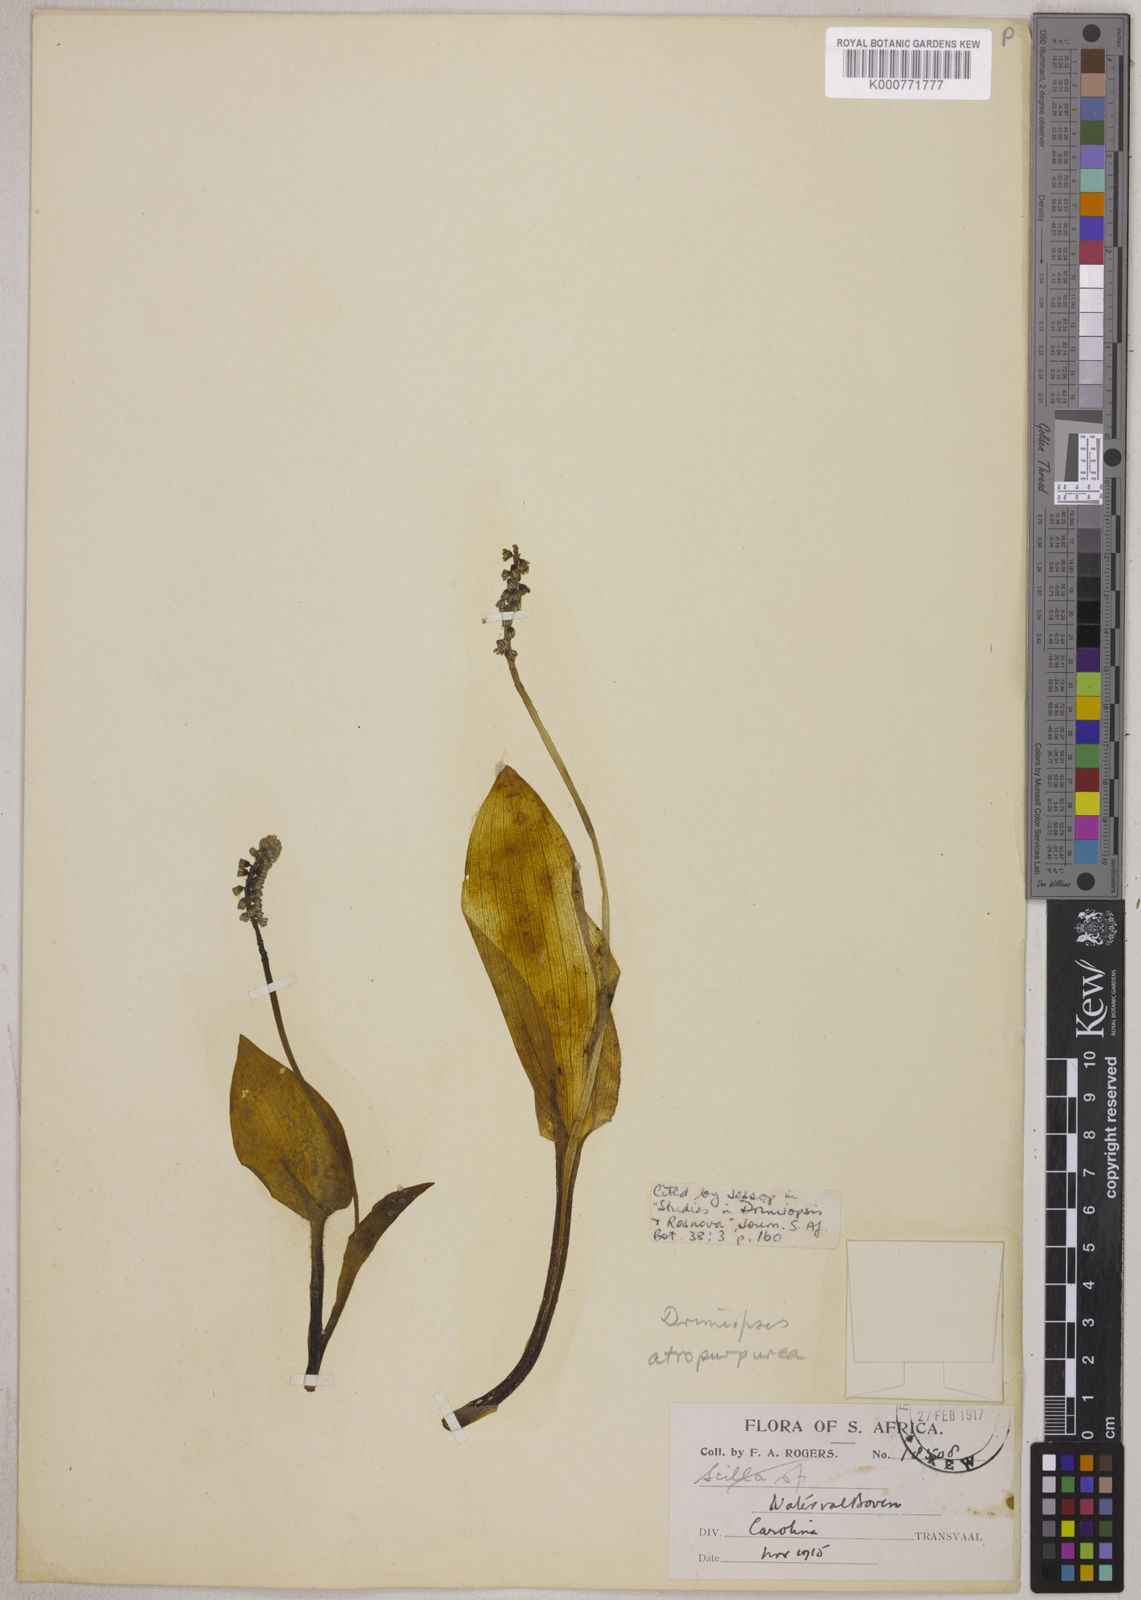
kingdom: Plantae
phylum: Tracheophyta
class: Liliopsida
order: Asparagales
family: Asparagaceae
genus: Drimiopsis
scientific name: Drimiopsis atropurpurea
